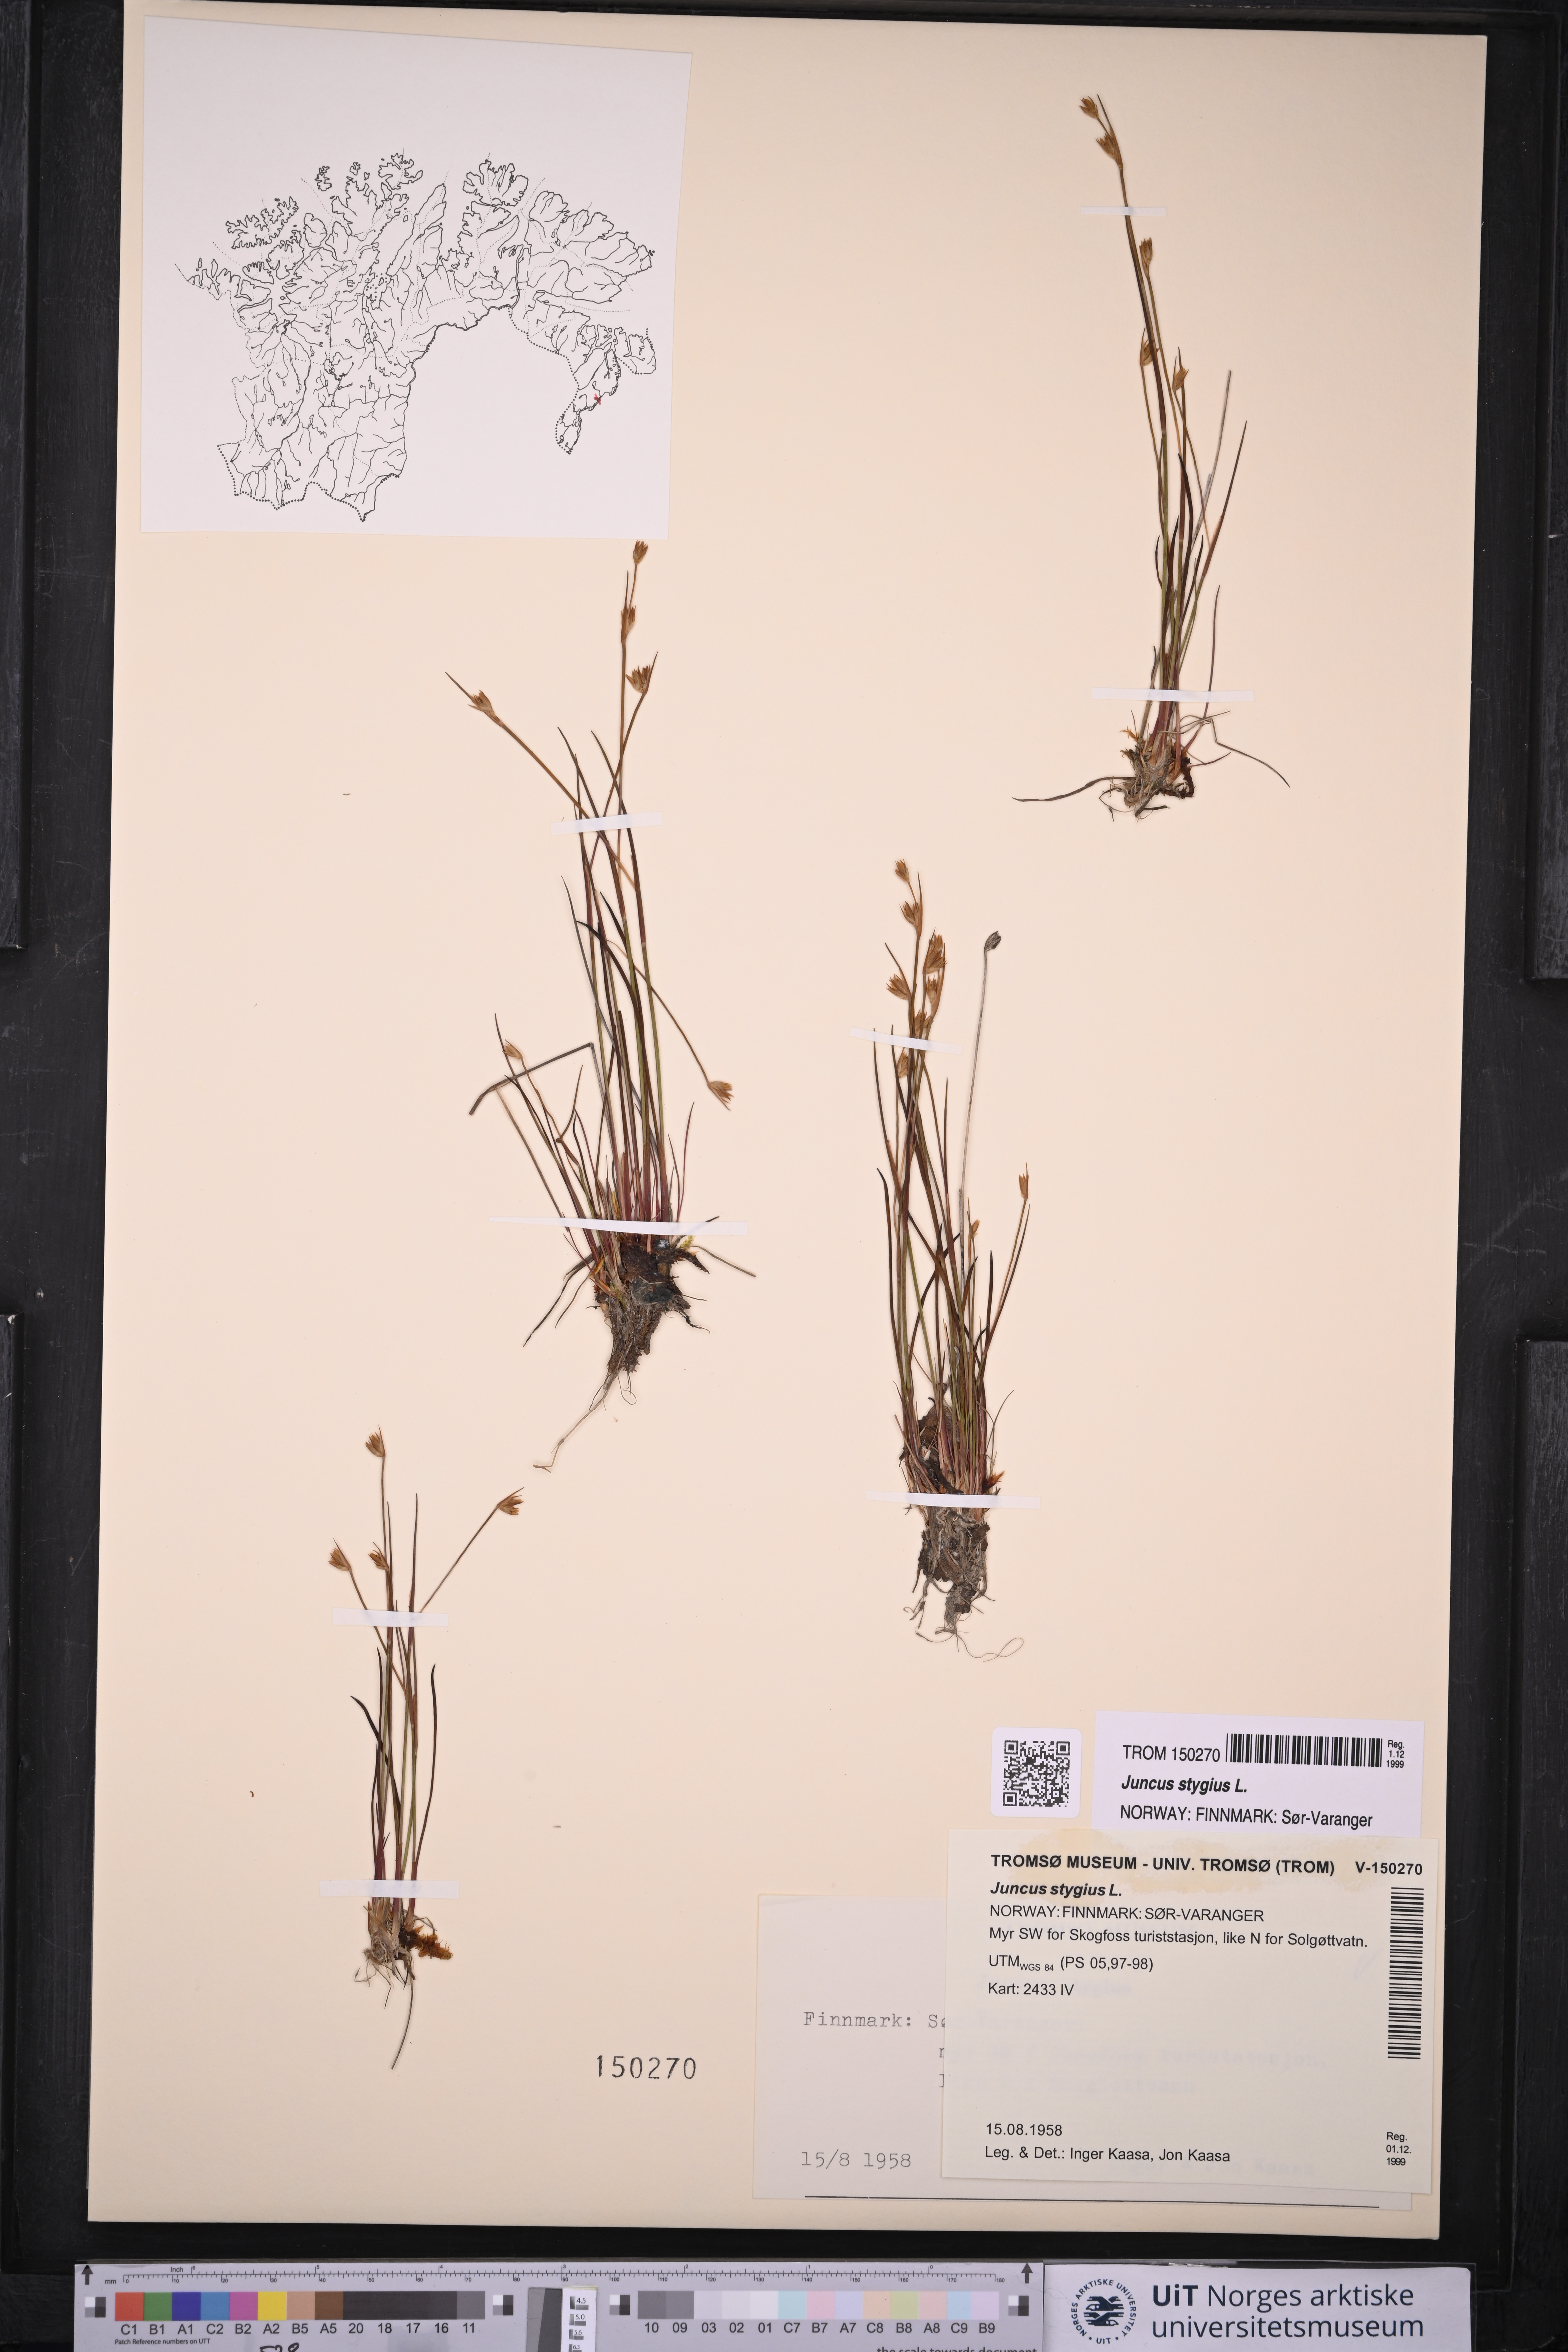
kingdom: Plantae
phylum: Tracheophyta
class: Liliopsida
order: Poales
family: Juncaceae
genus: Juncus
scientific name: Juncus stygius
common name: Bog rush
